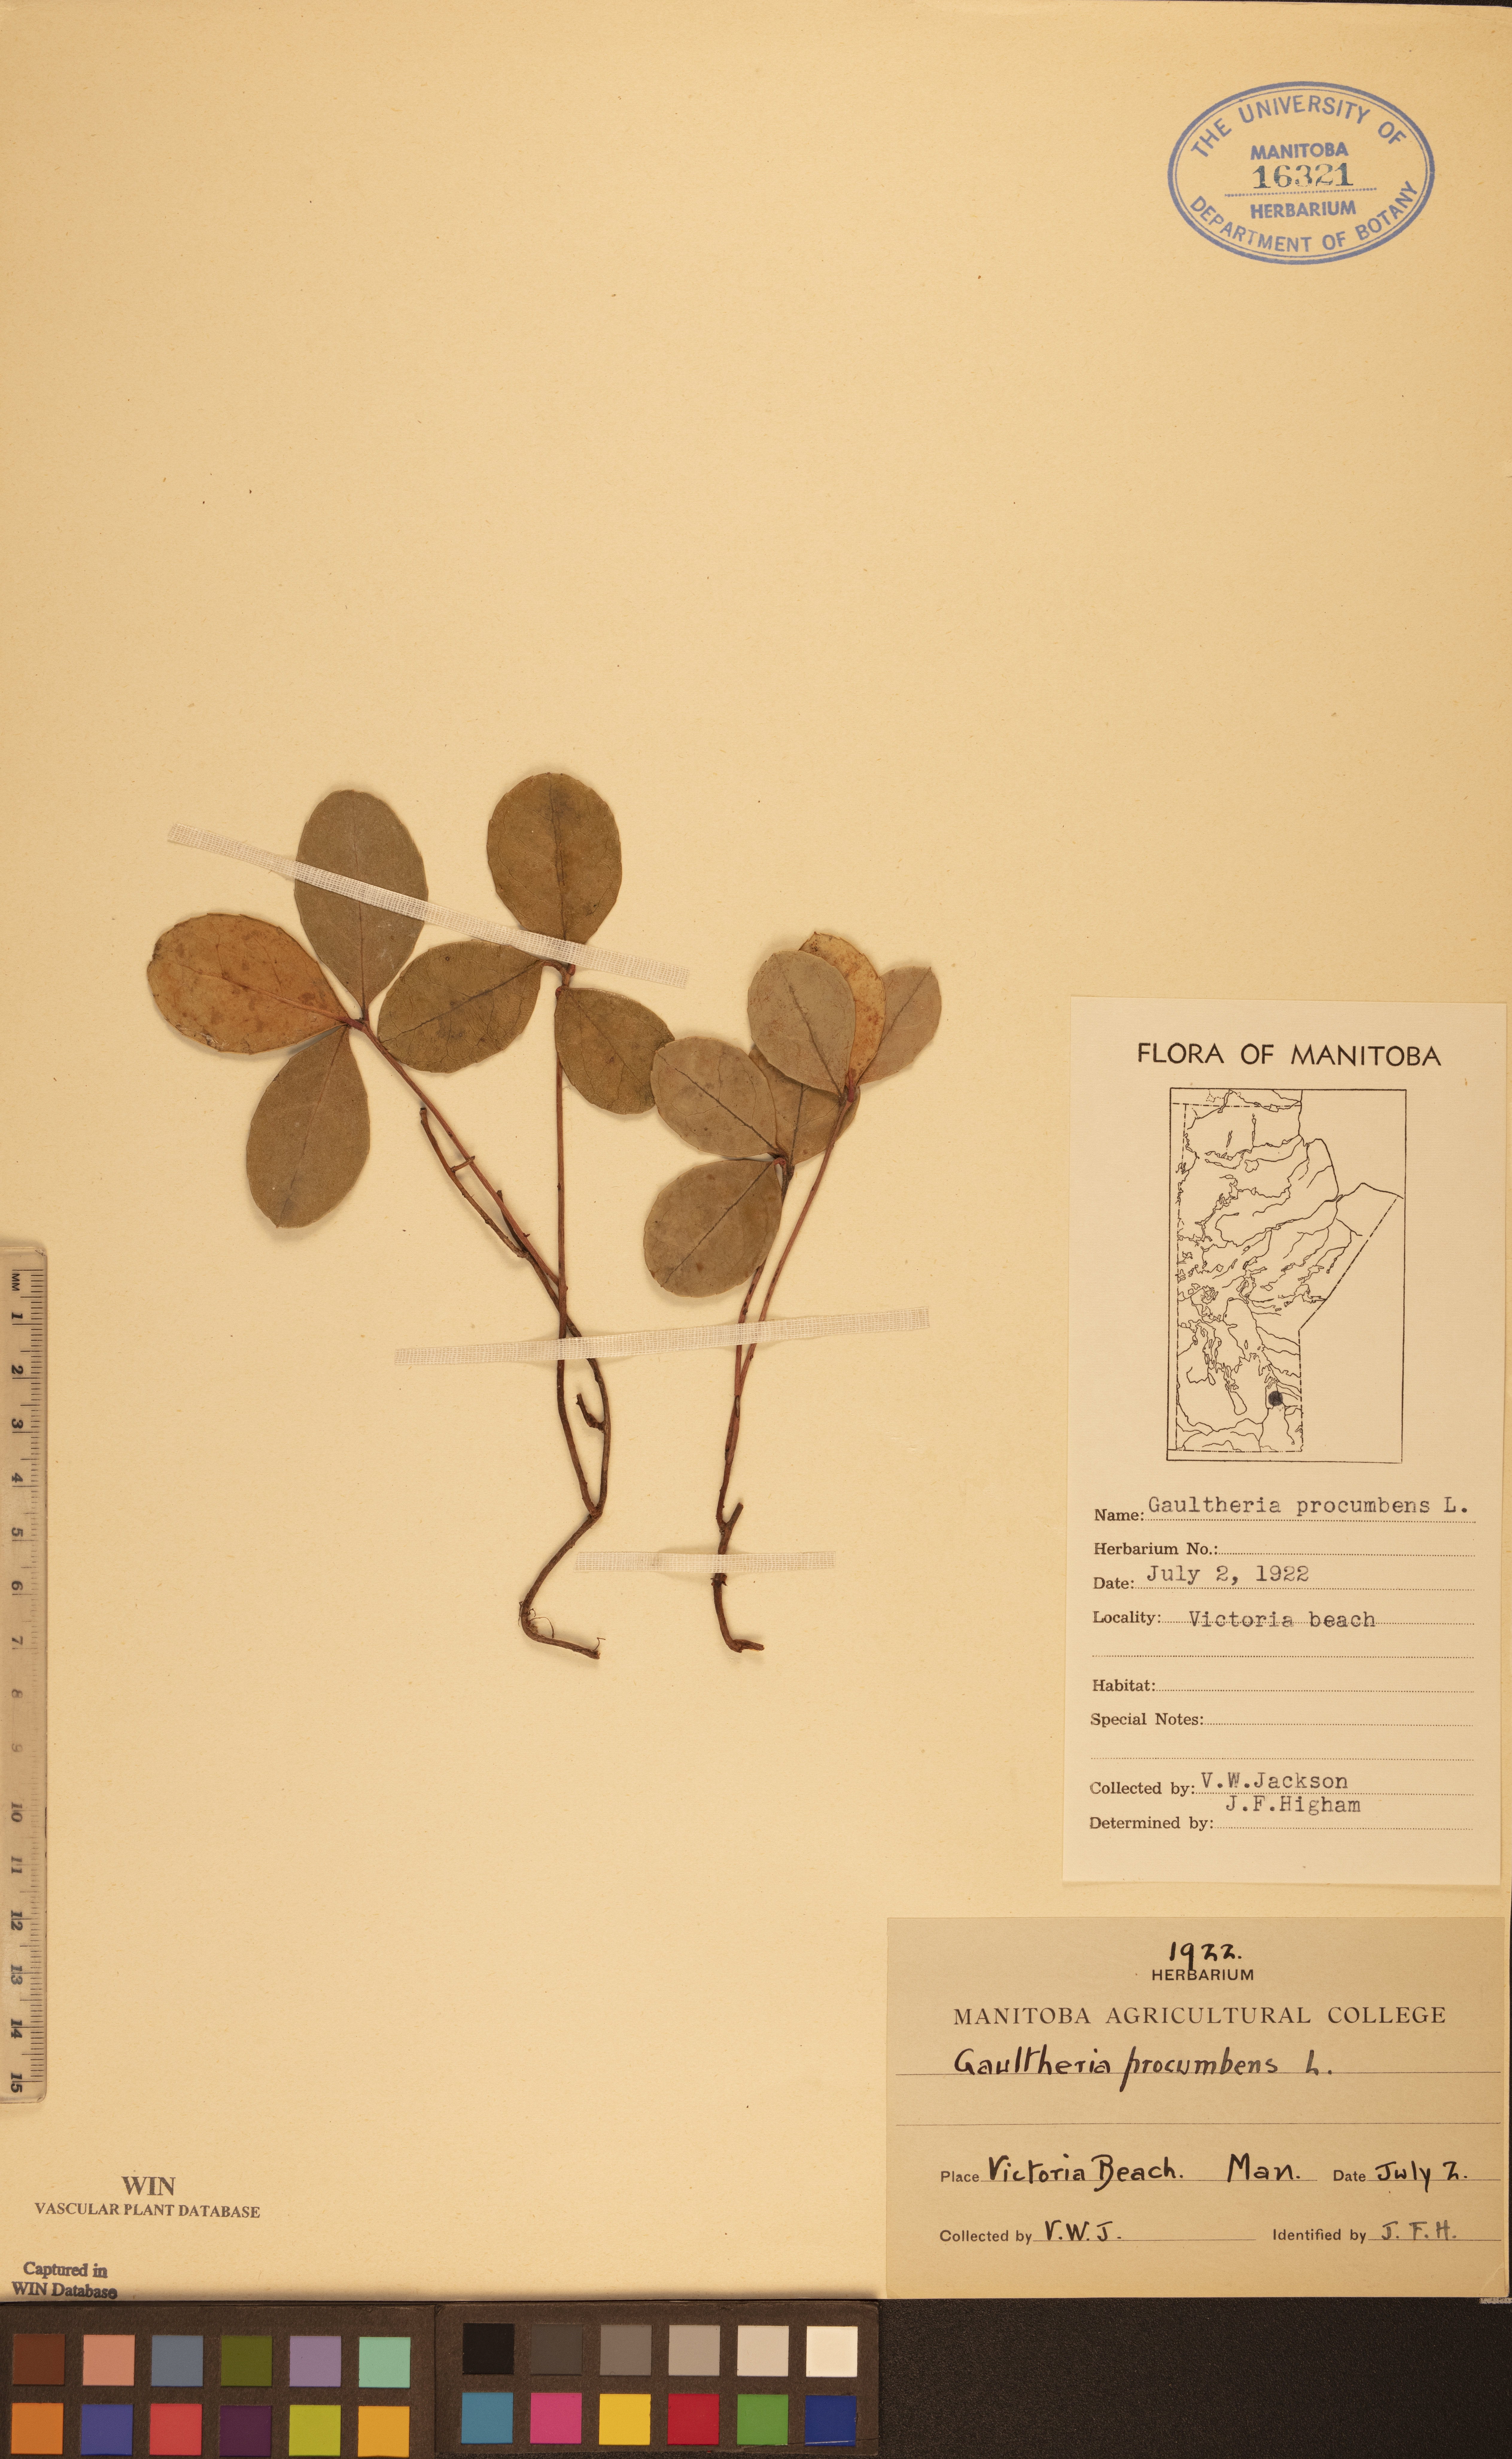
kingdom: Plantae
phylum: Tracheophyta
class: Magnoliopsida
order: Ericales
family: Ericaceae
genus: Gaultheria
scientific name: Gaultheria procumbens
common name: Checkerberry
